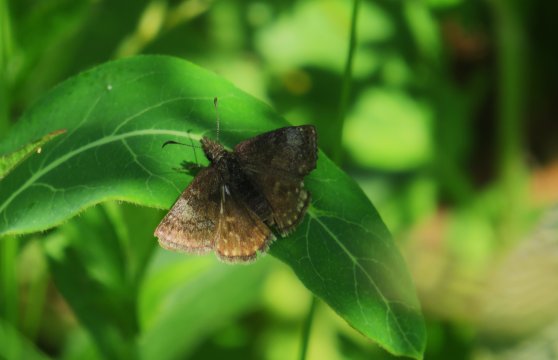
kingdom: Animalia
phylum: Arthropoda
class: Insecta
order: Lepidoptera
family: Hesperiidae
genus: Erynnis
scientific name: Erynnis icelus
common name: Dreamy Duskywing
